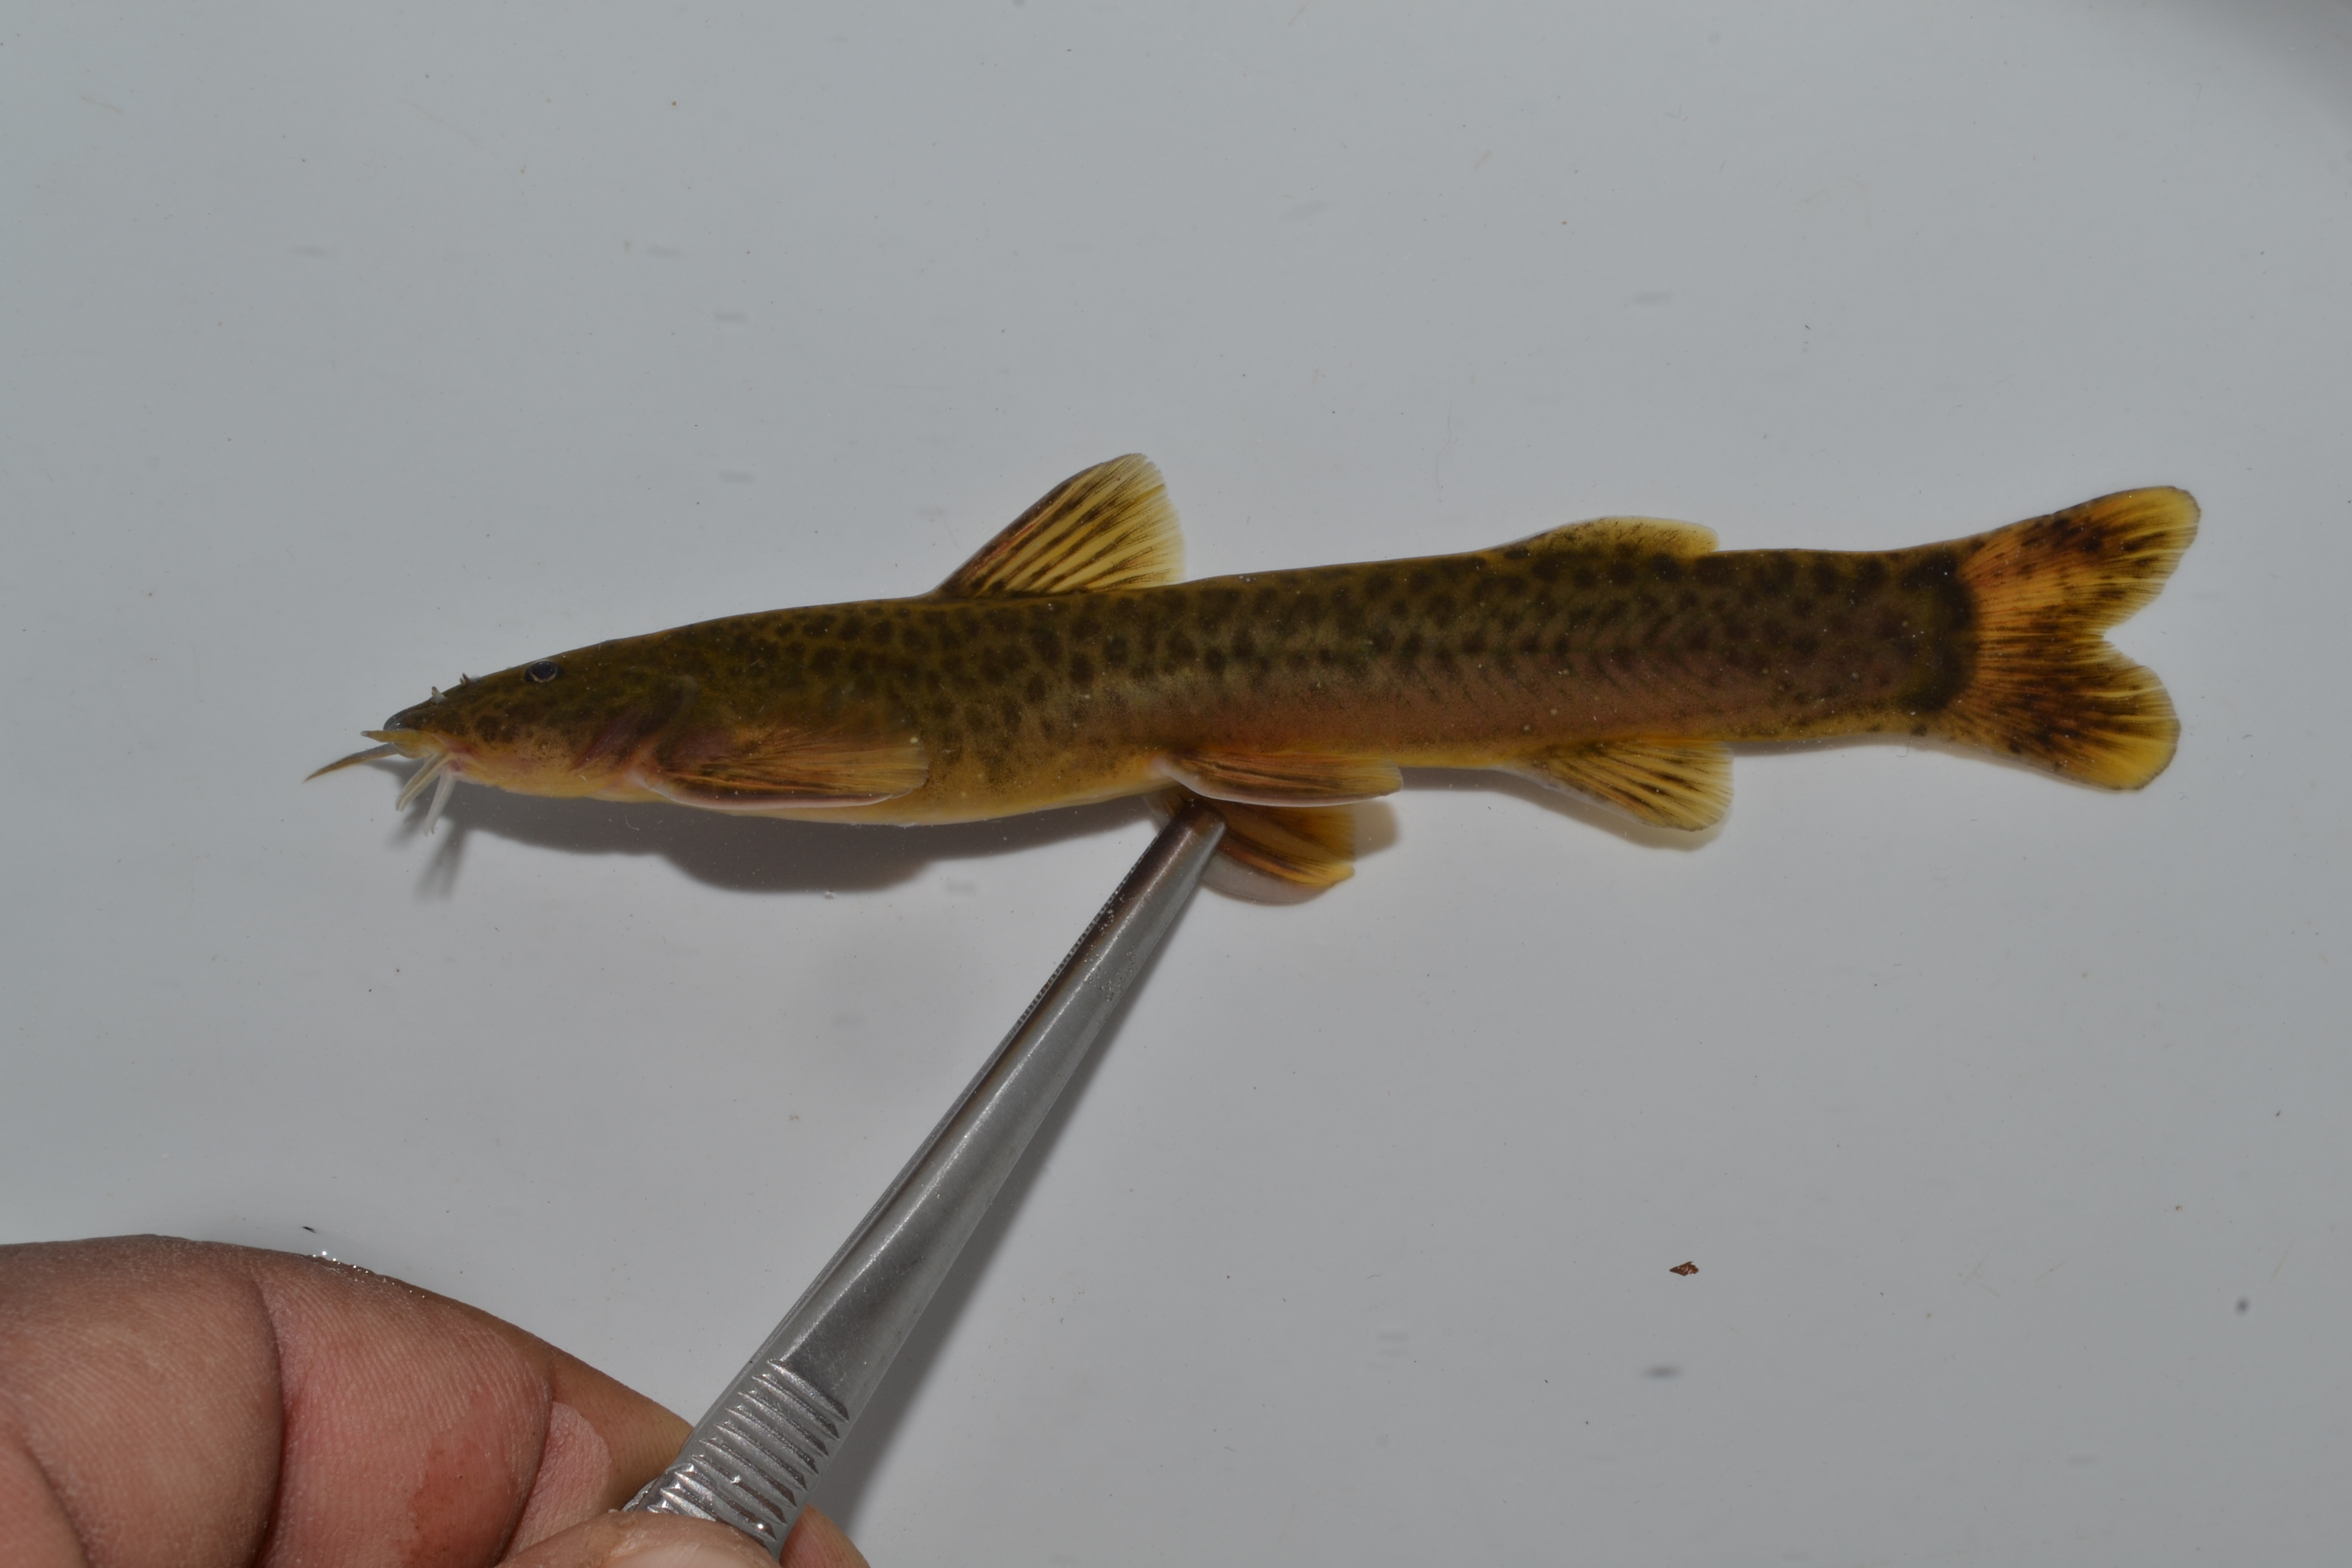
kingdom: Animalia
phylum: Chordata
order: Siluriformes
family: Amphiliidae
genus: Amphilius
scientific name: Amphilius zuluorum
